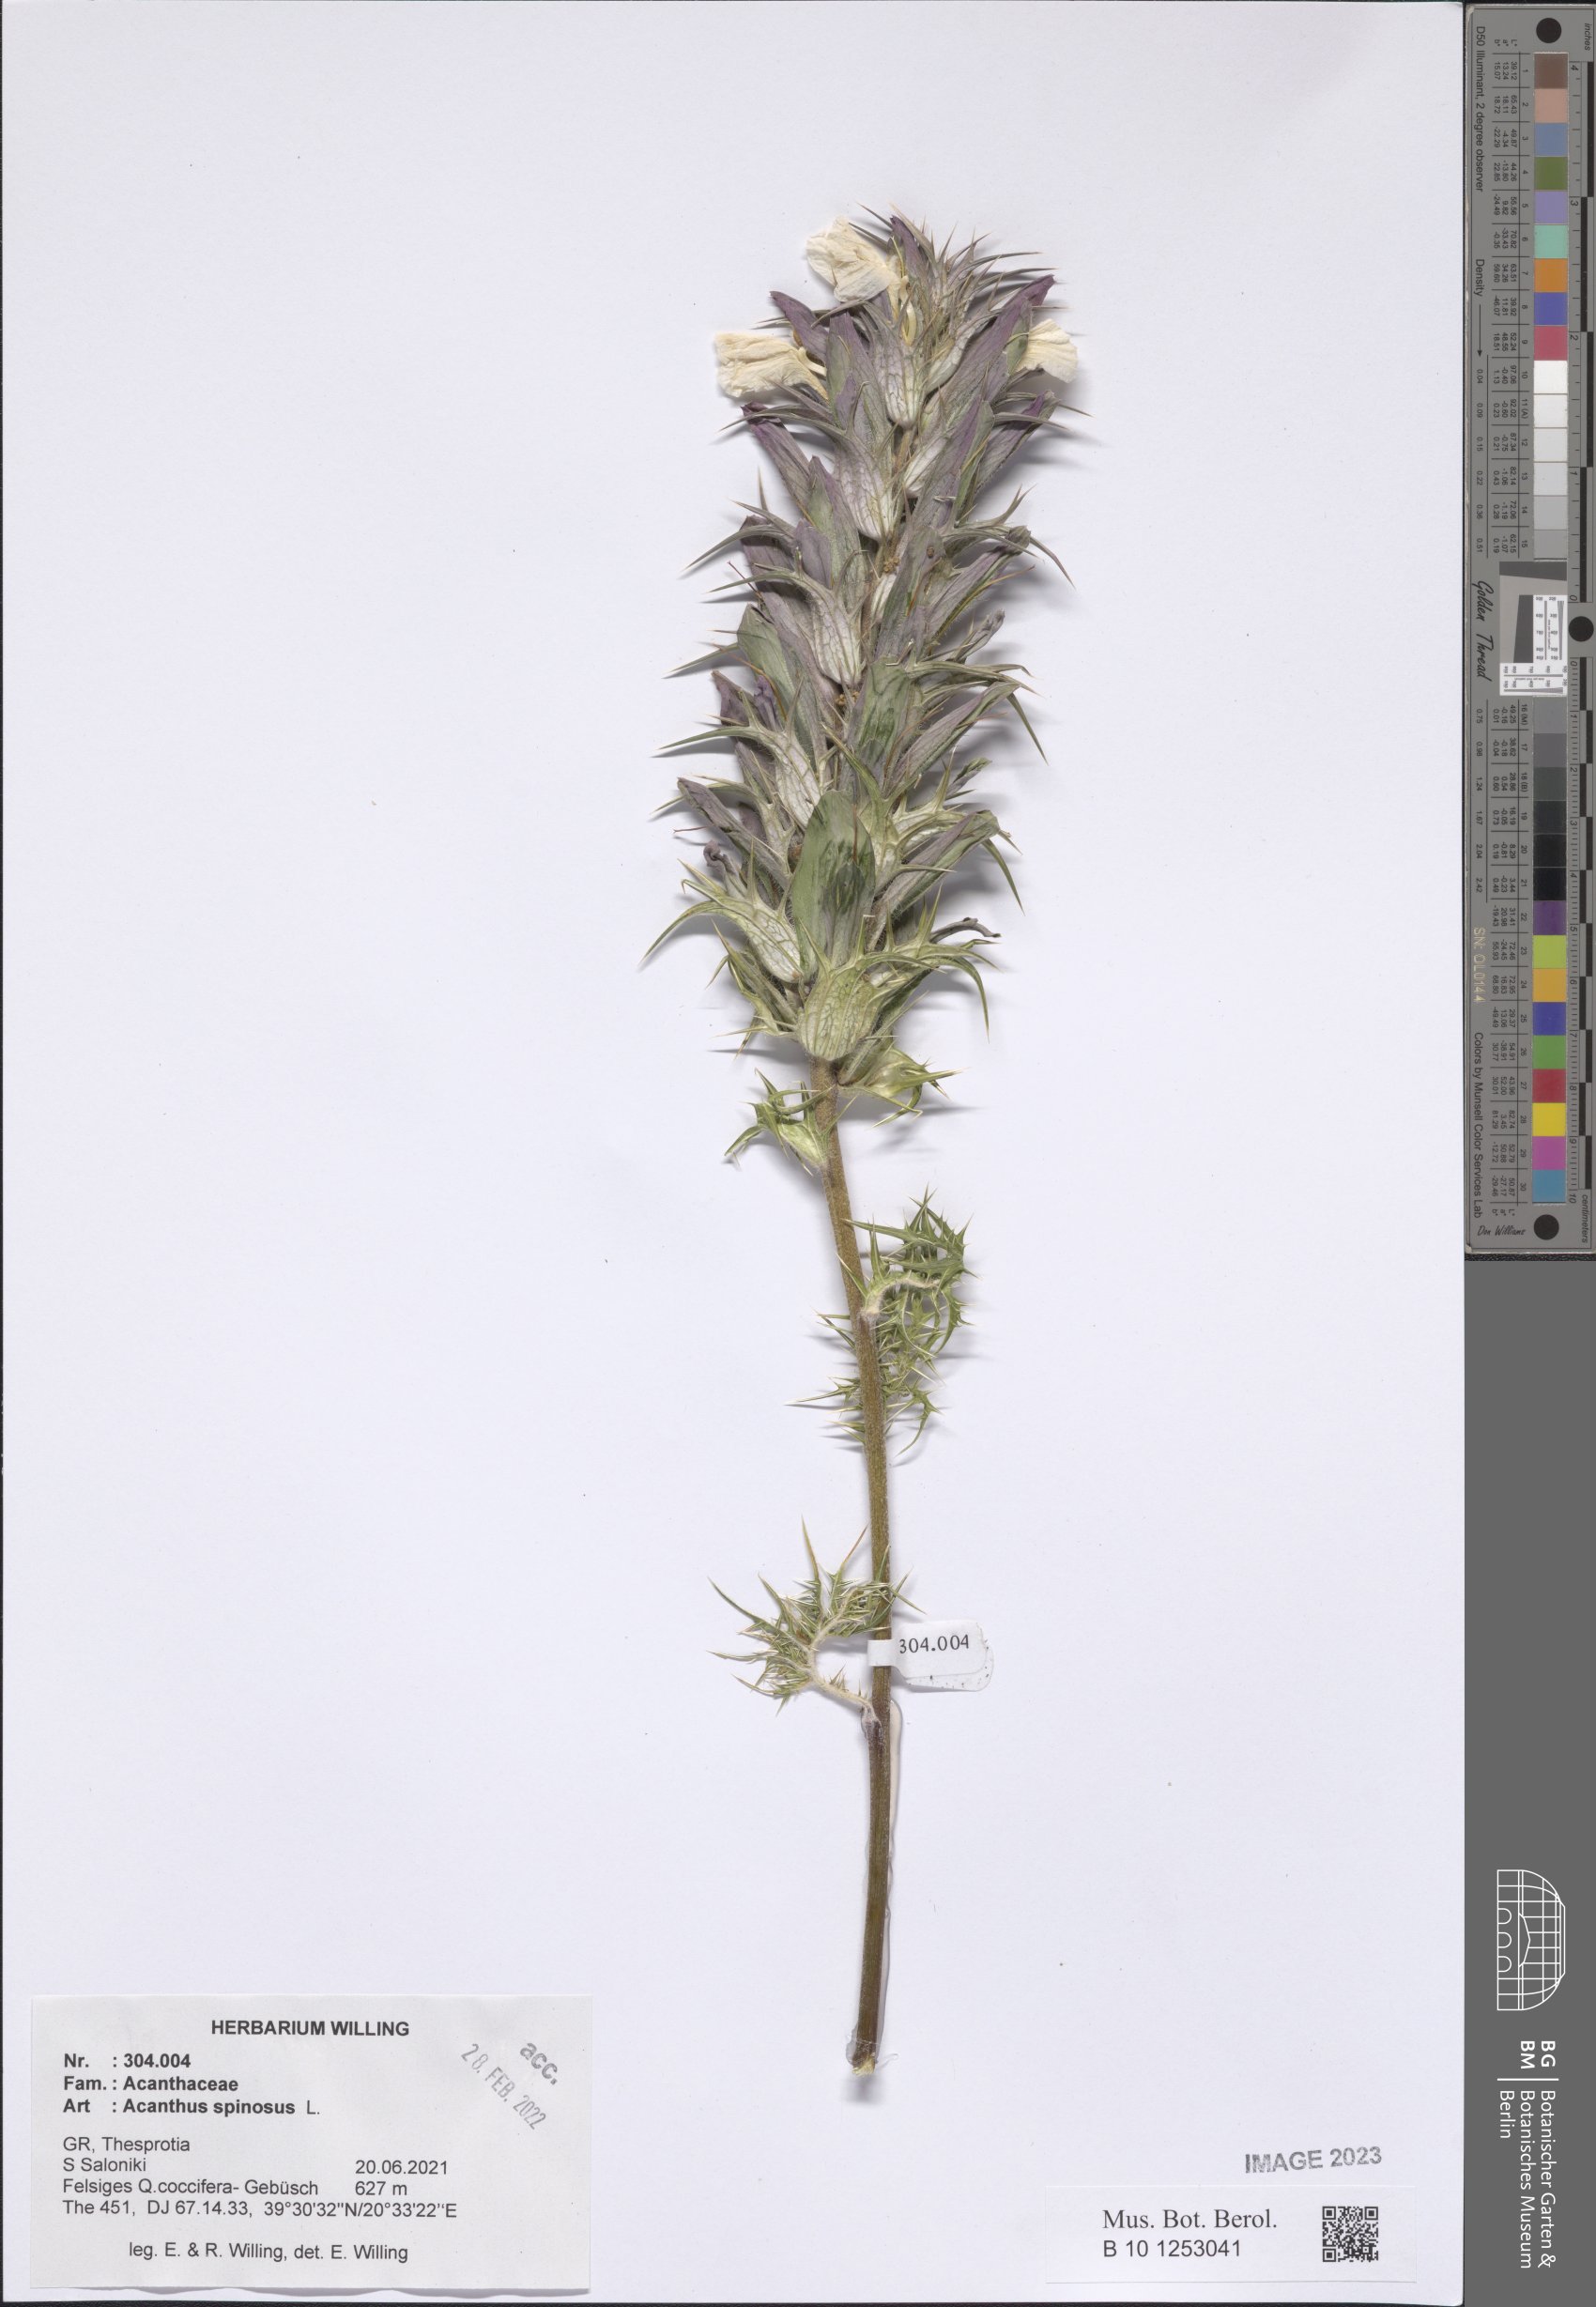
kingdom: Plantae
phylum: Tracheophyta
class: Magnoliopsida
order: Lamiales
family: Acanthaceae
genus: Acanthus
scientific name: Acanthus spinosus
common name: Spiny bear's-breech
